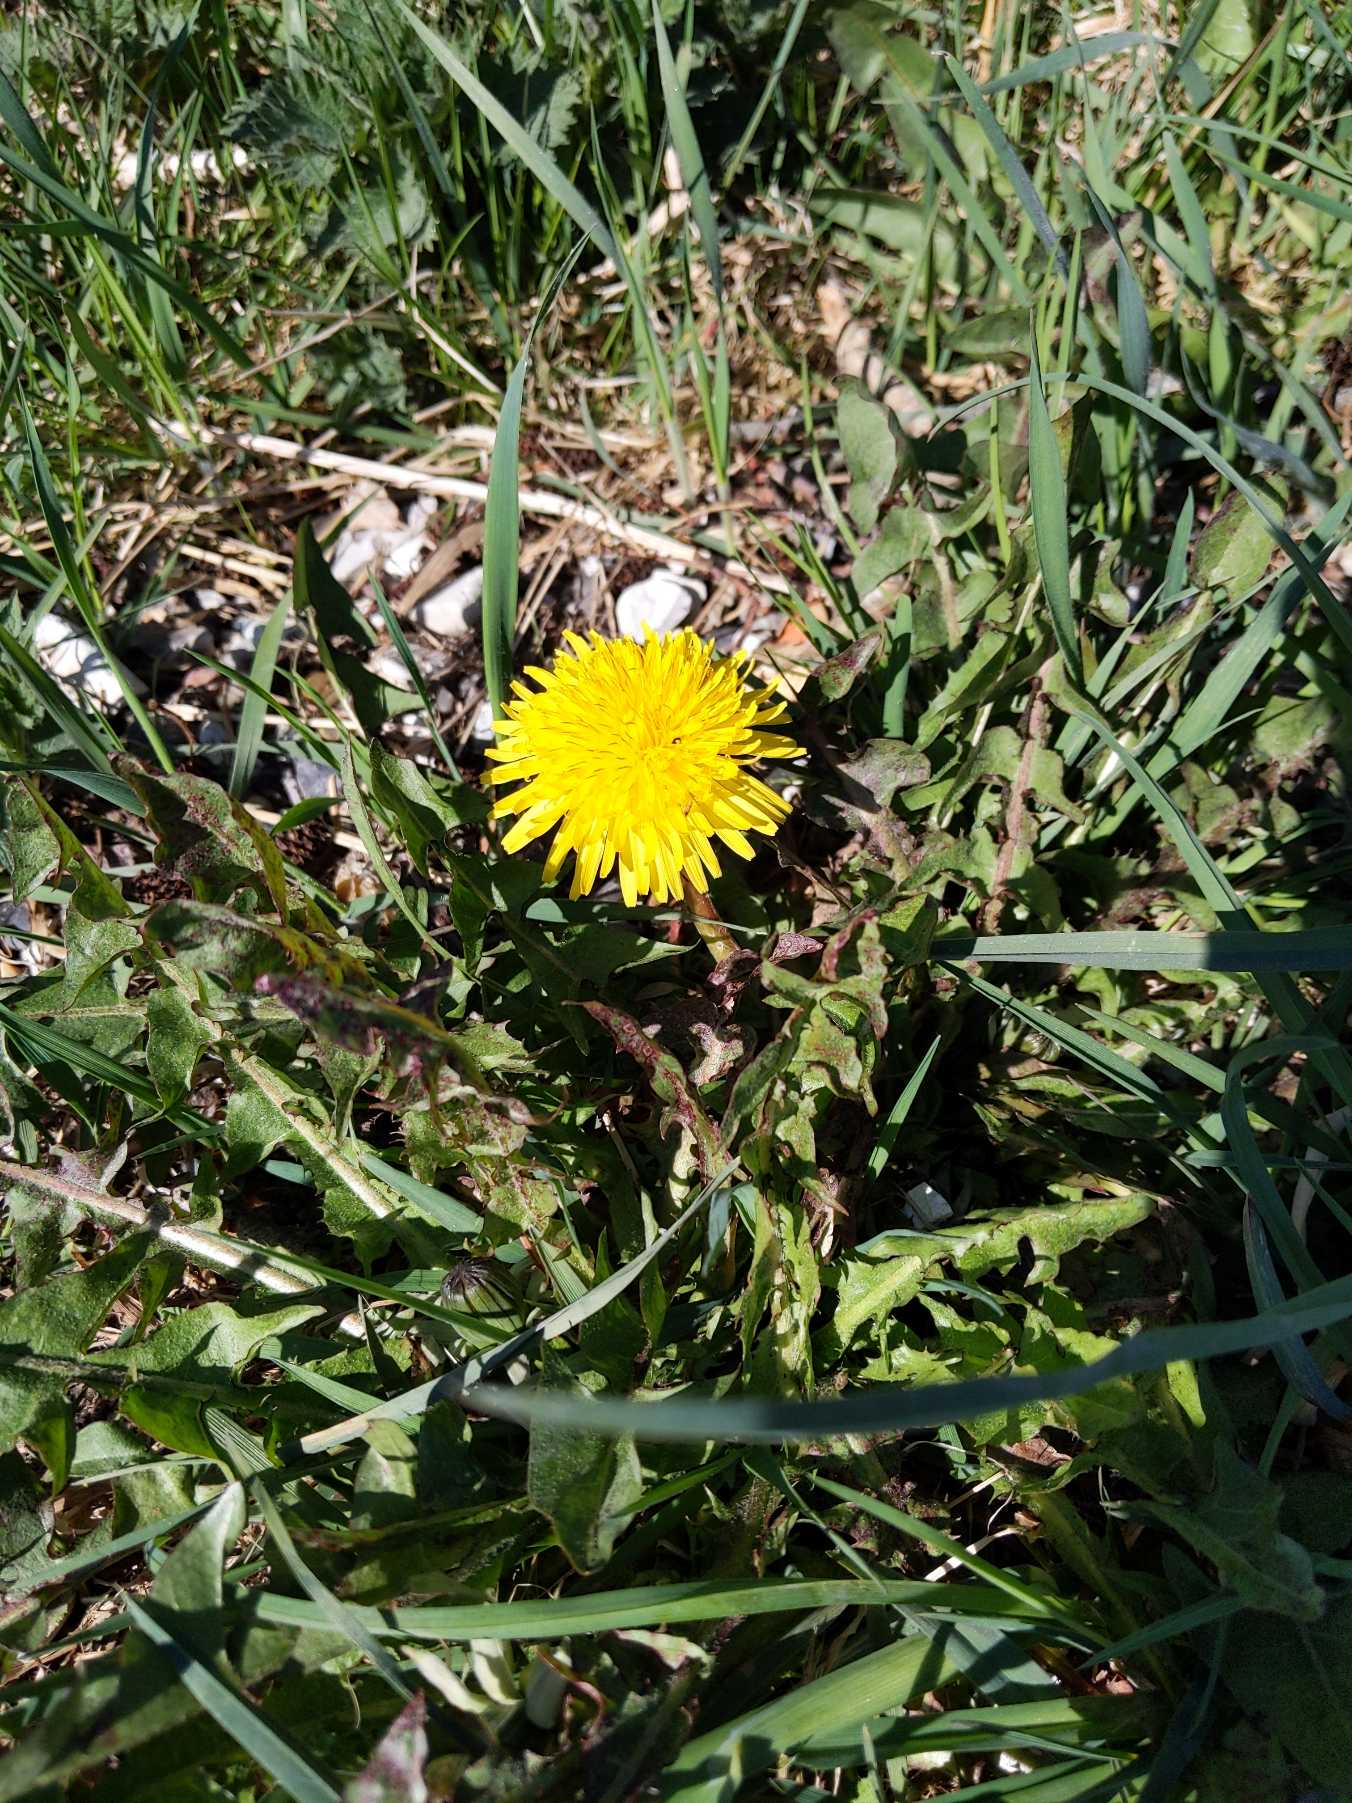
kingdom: Plantae
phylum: Tracheophyta
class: Magnoliopsida
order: Asterales
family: Asteraceae
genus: Taraxacum
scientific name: Taraxacum
